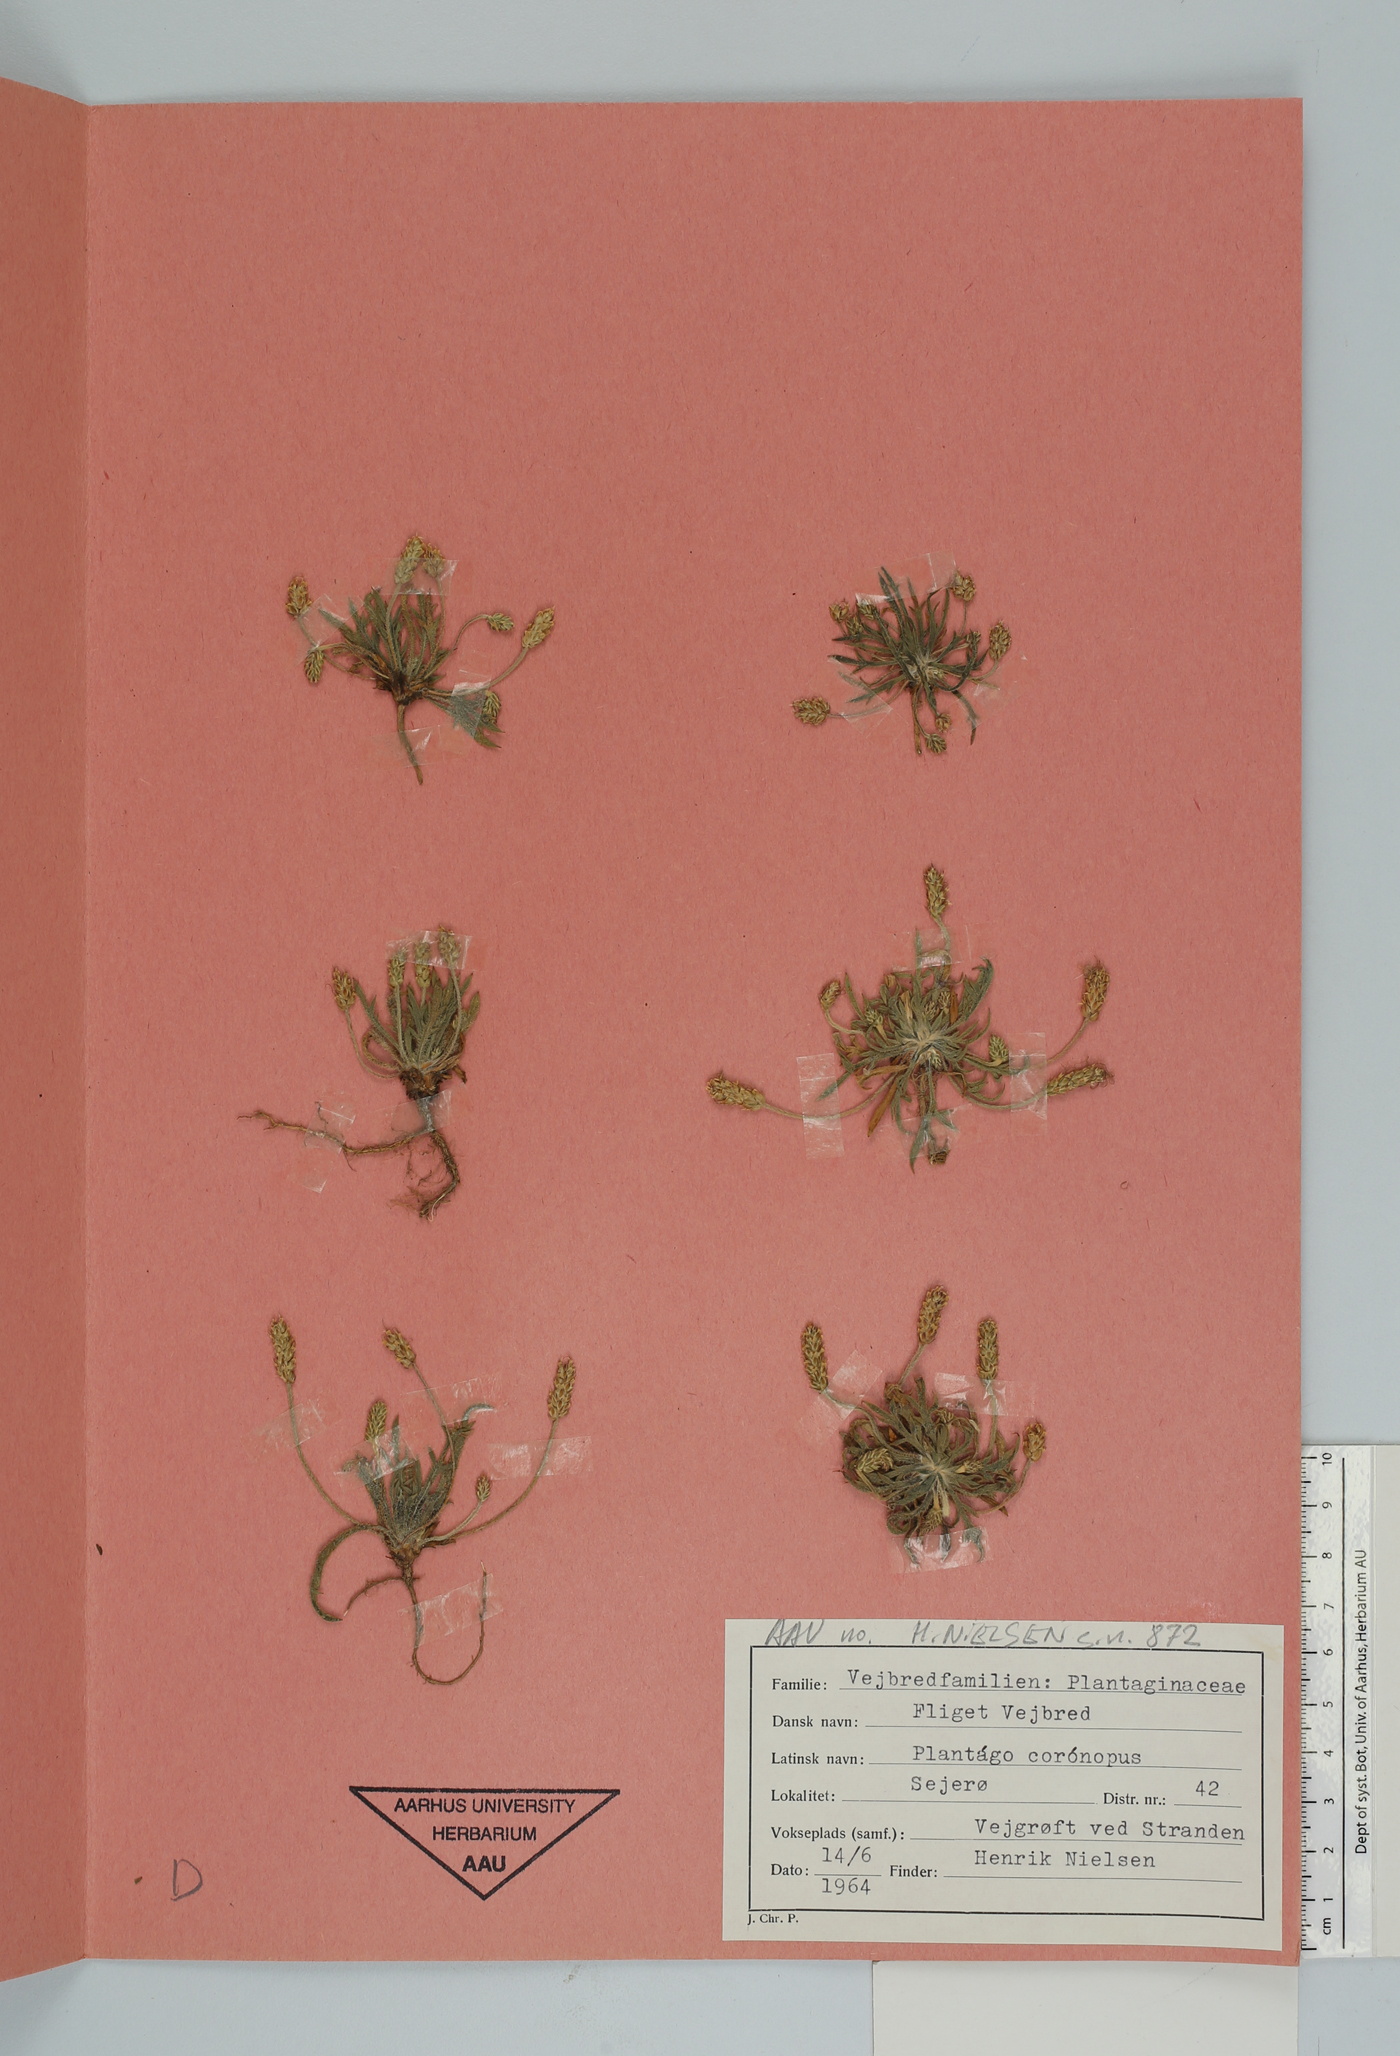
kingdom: Plantae
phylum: Tracheophyta
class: Magnoliopsida
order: Lamiales
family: Plantaginaceae
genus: Plantago
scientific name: Plantago coronopus
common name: Buck's-horn plantain
